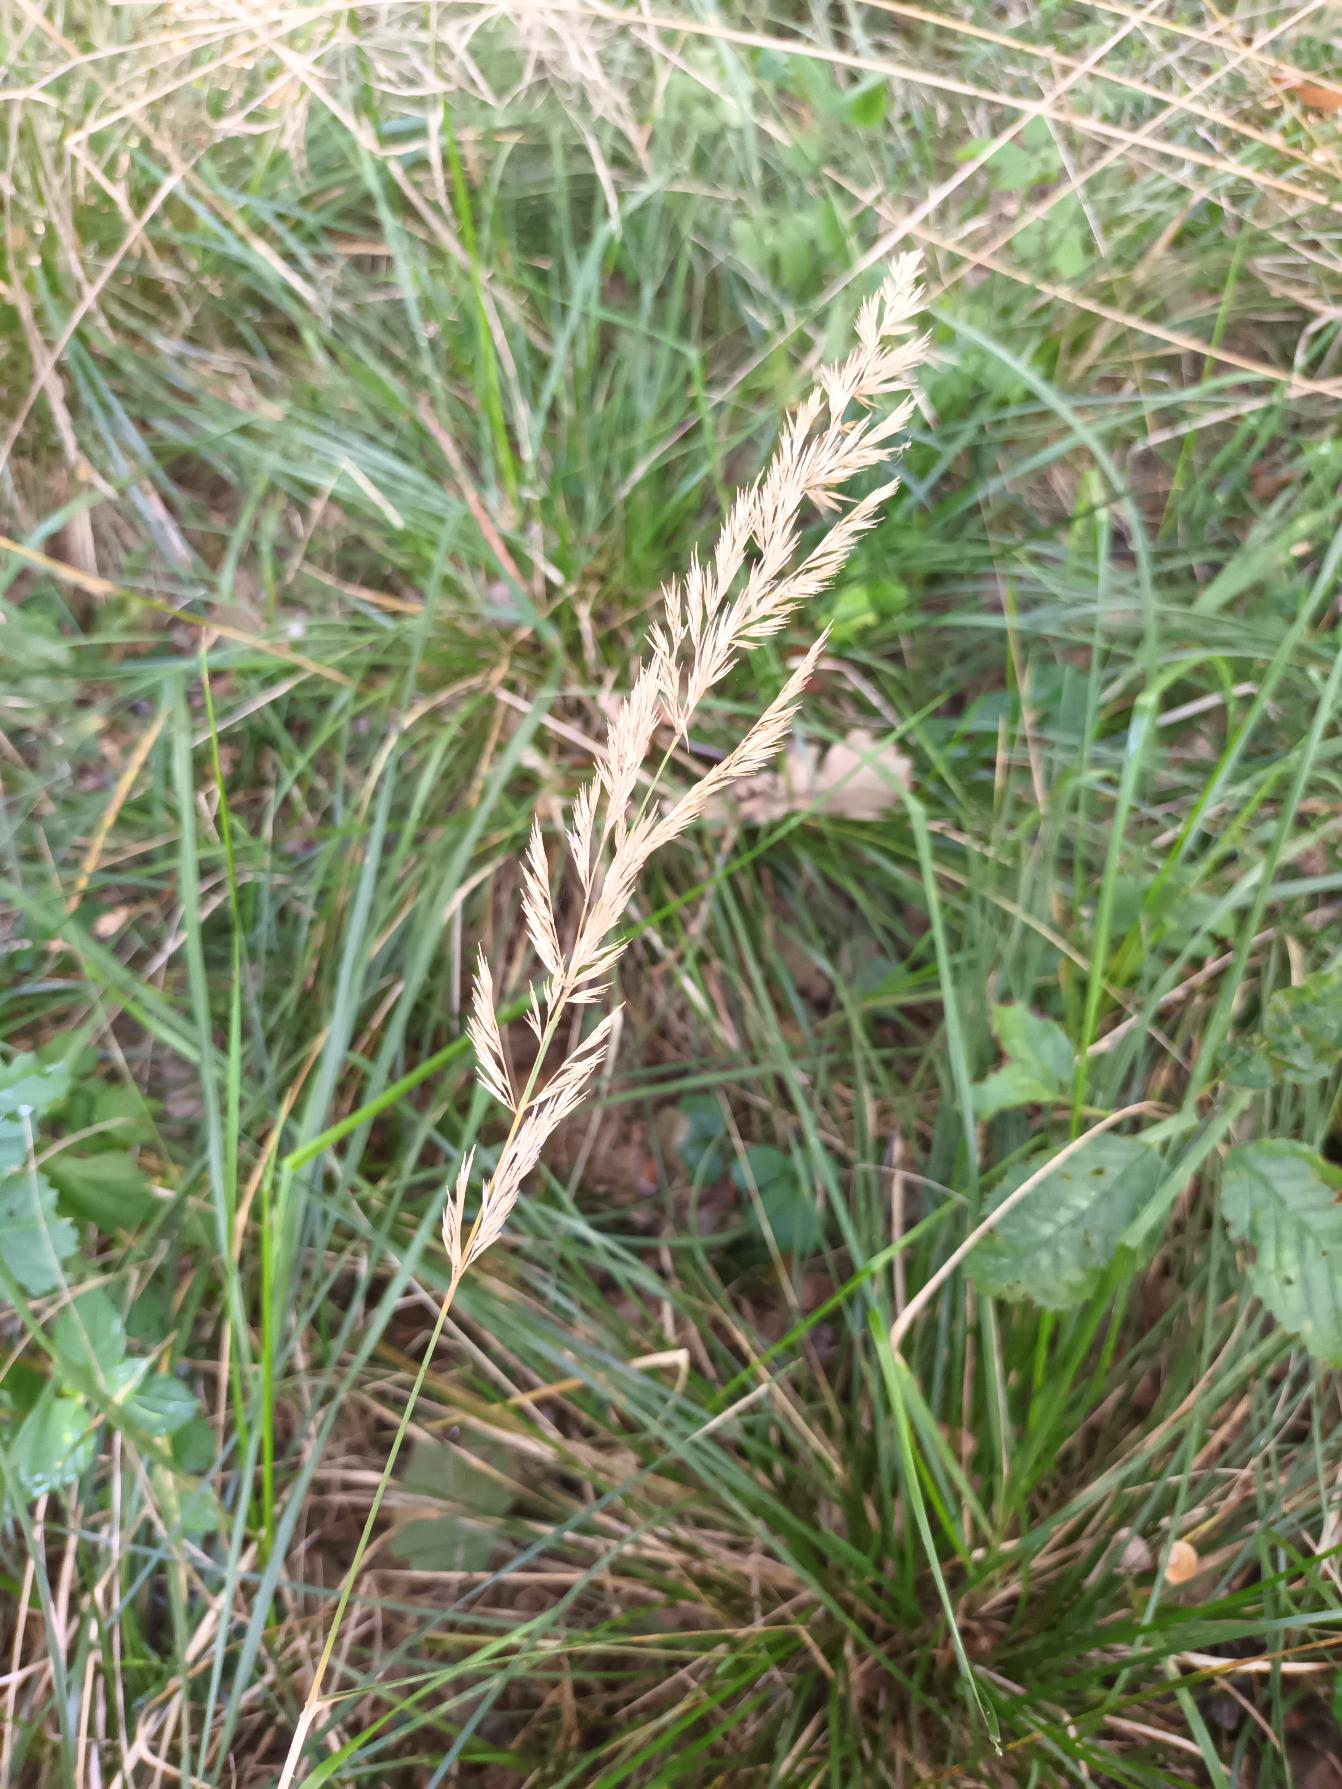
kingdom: Plantae
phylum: Tracheophyta
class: Liliopsida
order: Poales
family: Poaceae
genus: Calamagrostis
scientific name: Calamagrostis epigejos
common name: Bjerg-rørhvene
